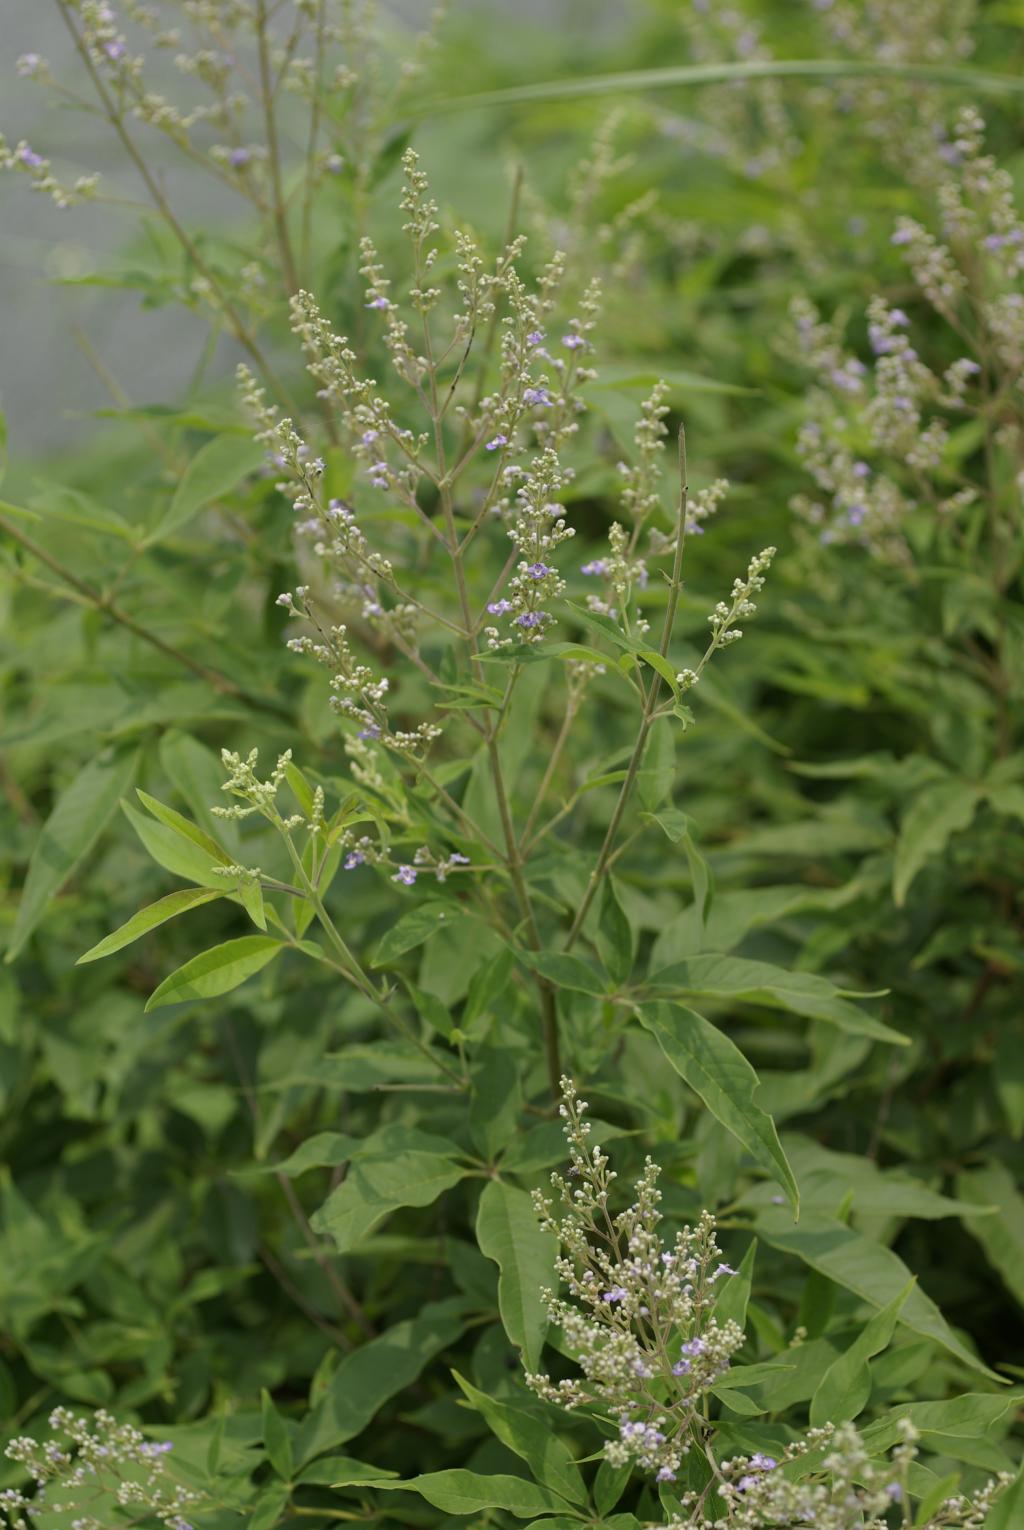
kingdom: Plantae
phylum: Tracheophyta
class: Magnoliopsida
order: Lamiales
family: Lamiaceae
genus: Vitex
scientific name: Vitex negundo
